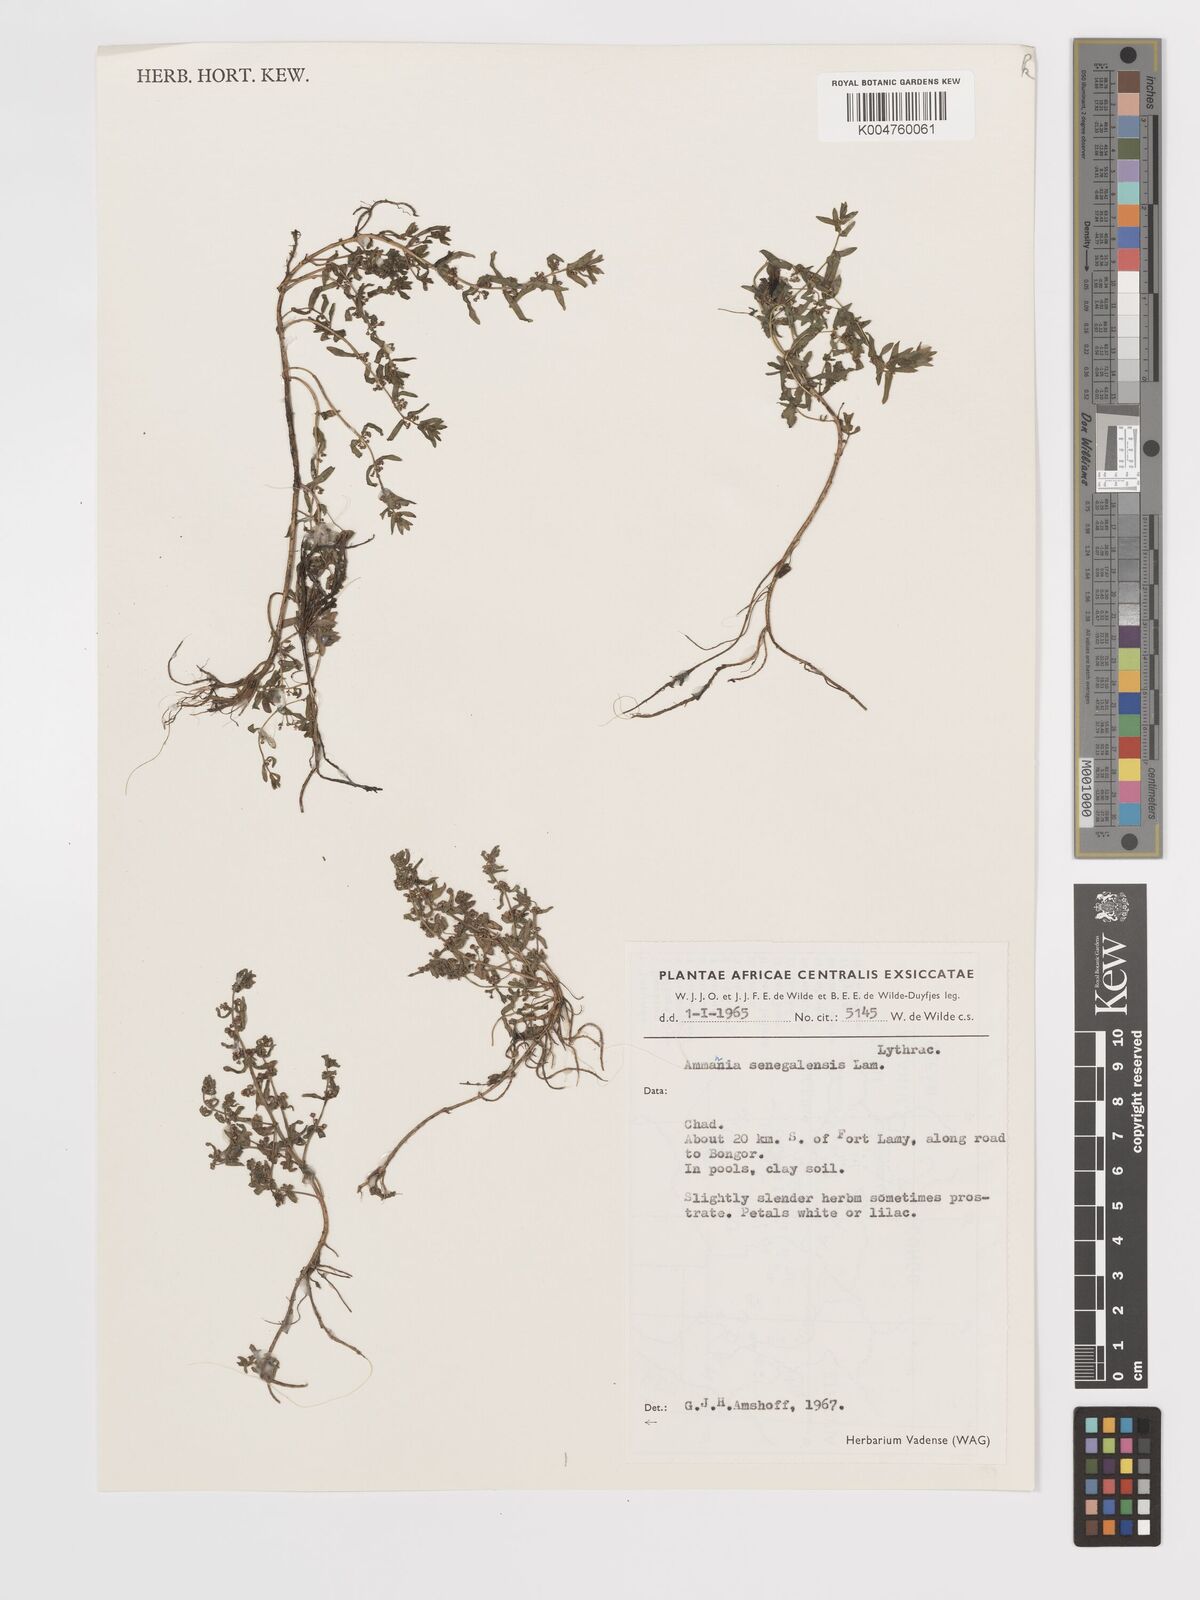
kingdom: Plantae
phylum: Tracheophyta
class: Magnoliopsida
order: Myrtales
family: Lythraceae
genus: Ammannia
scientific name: Ammannia auriculata
